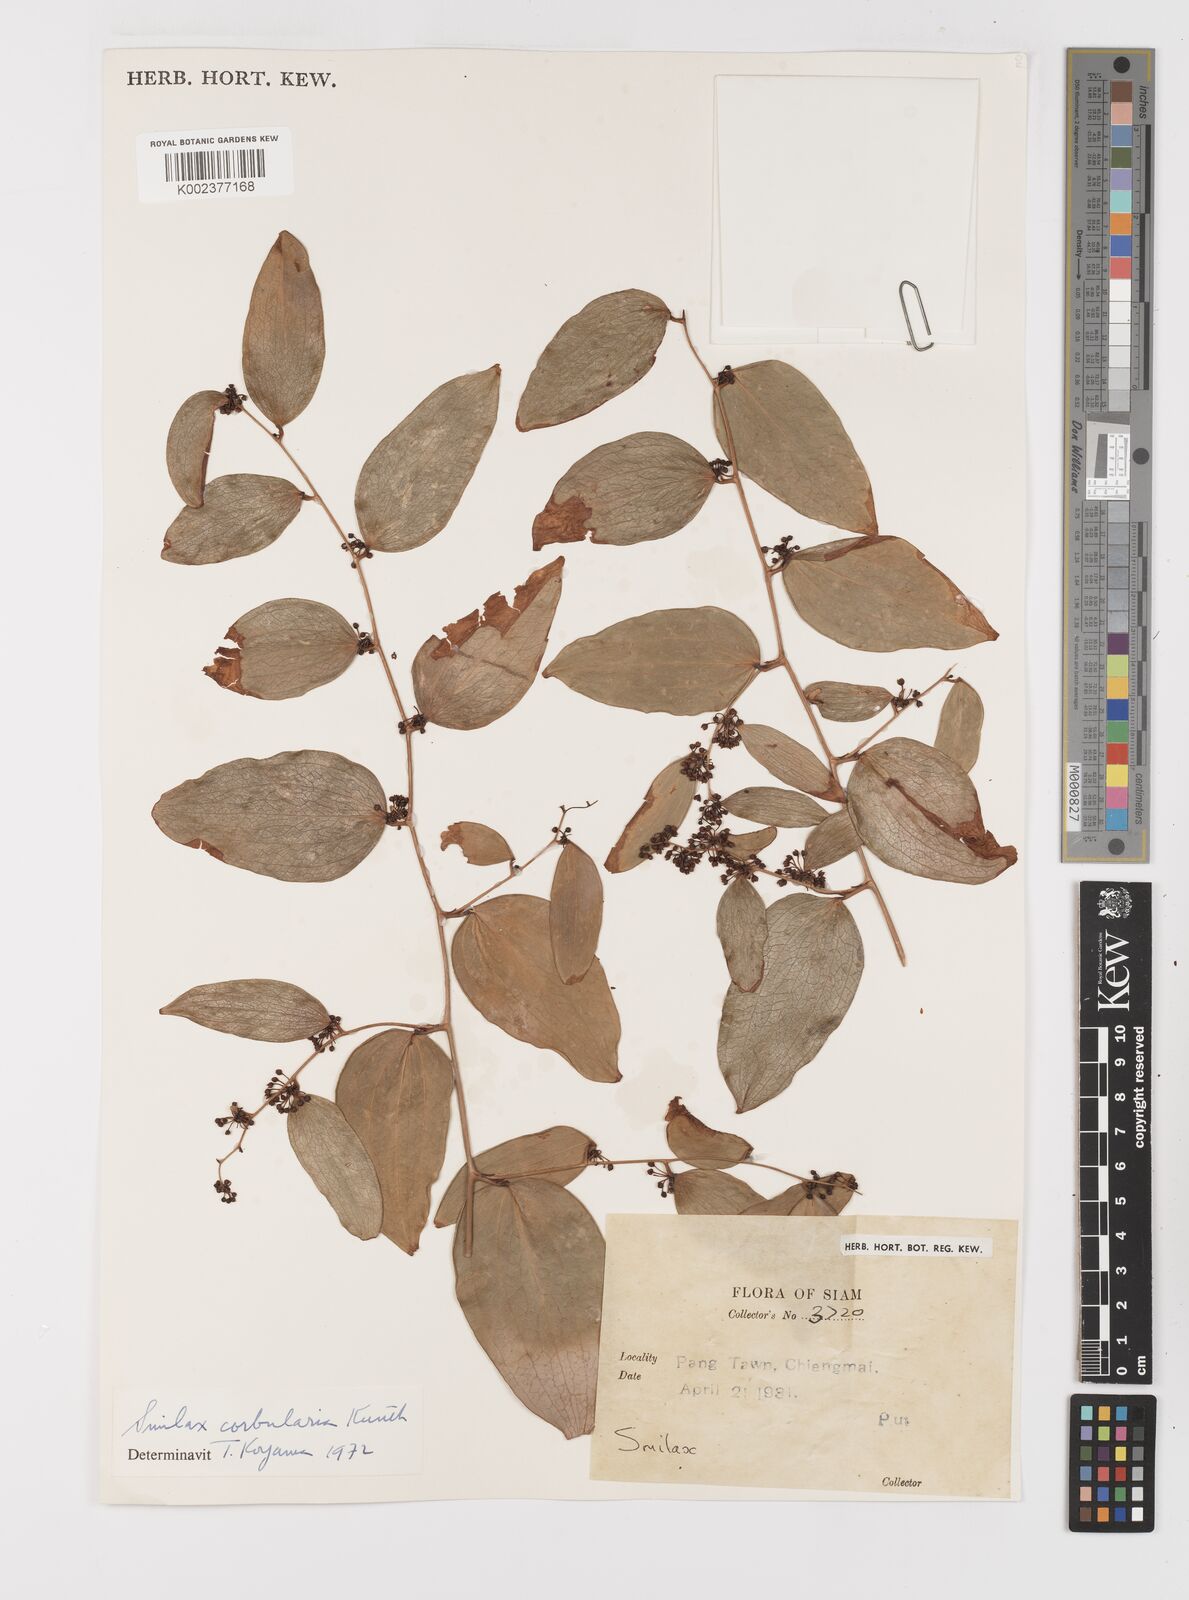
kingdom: Plantae
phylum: Tracheophyta
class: Liliopsida
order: Liliales
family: Smilacaceae
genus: Smilax
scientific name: Smilax corbularia
